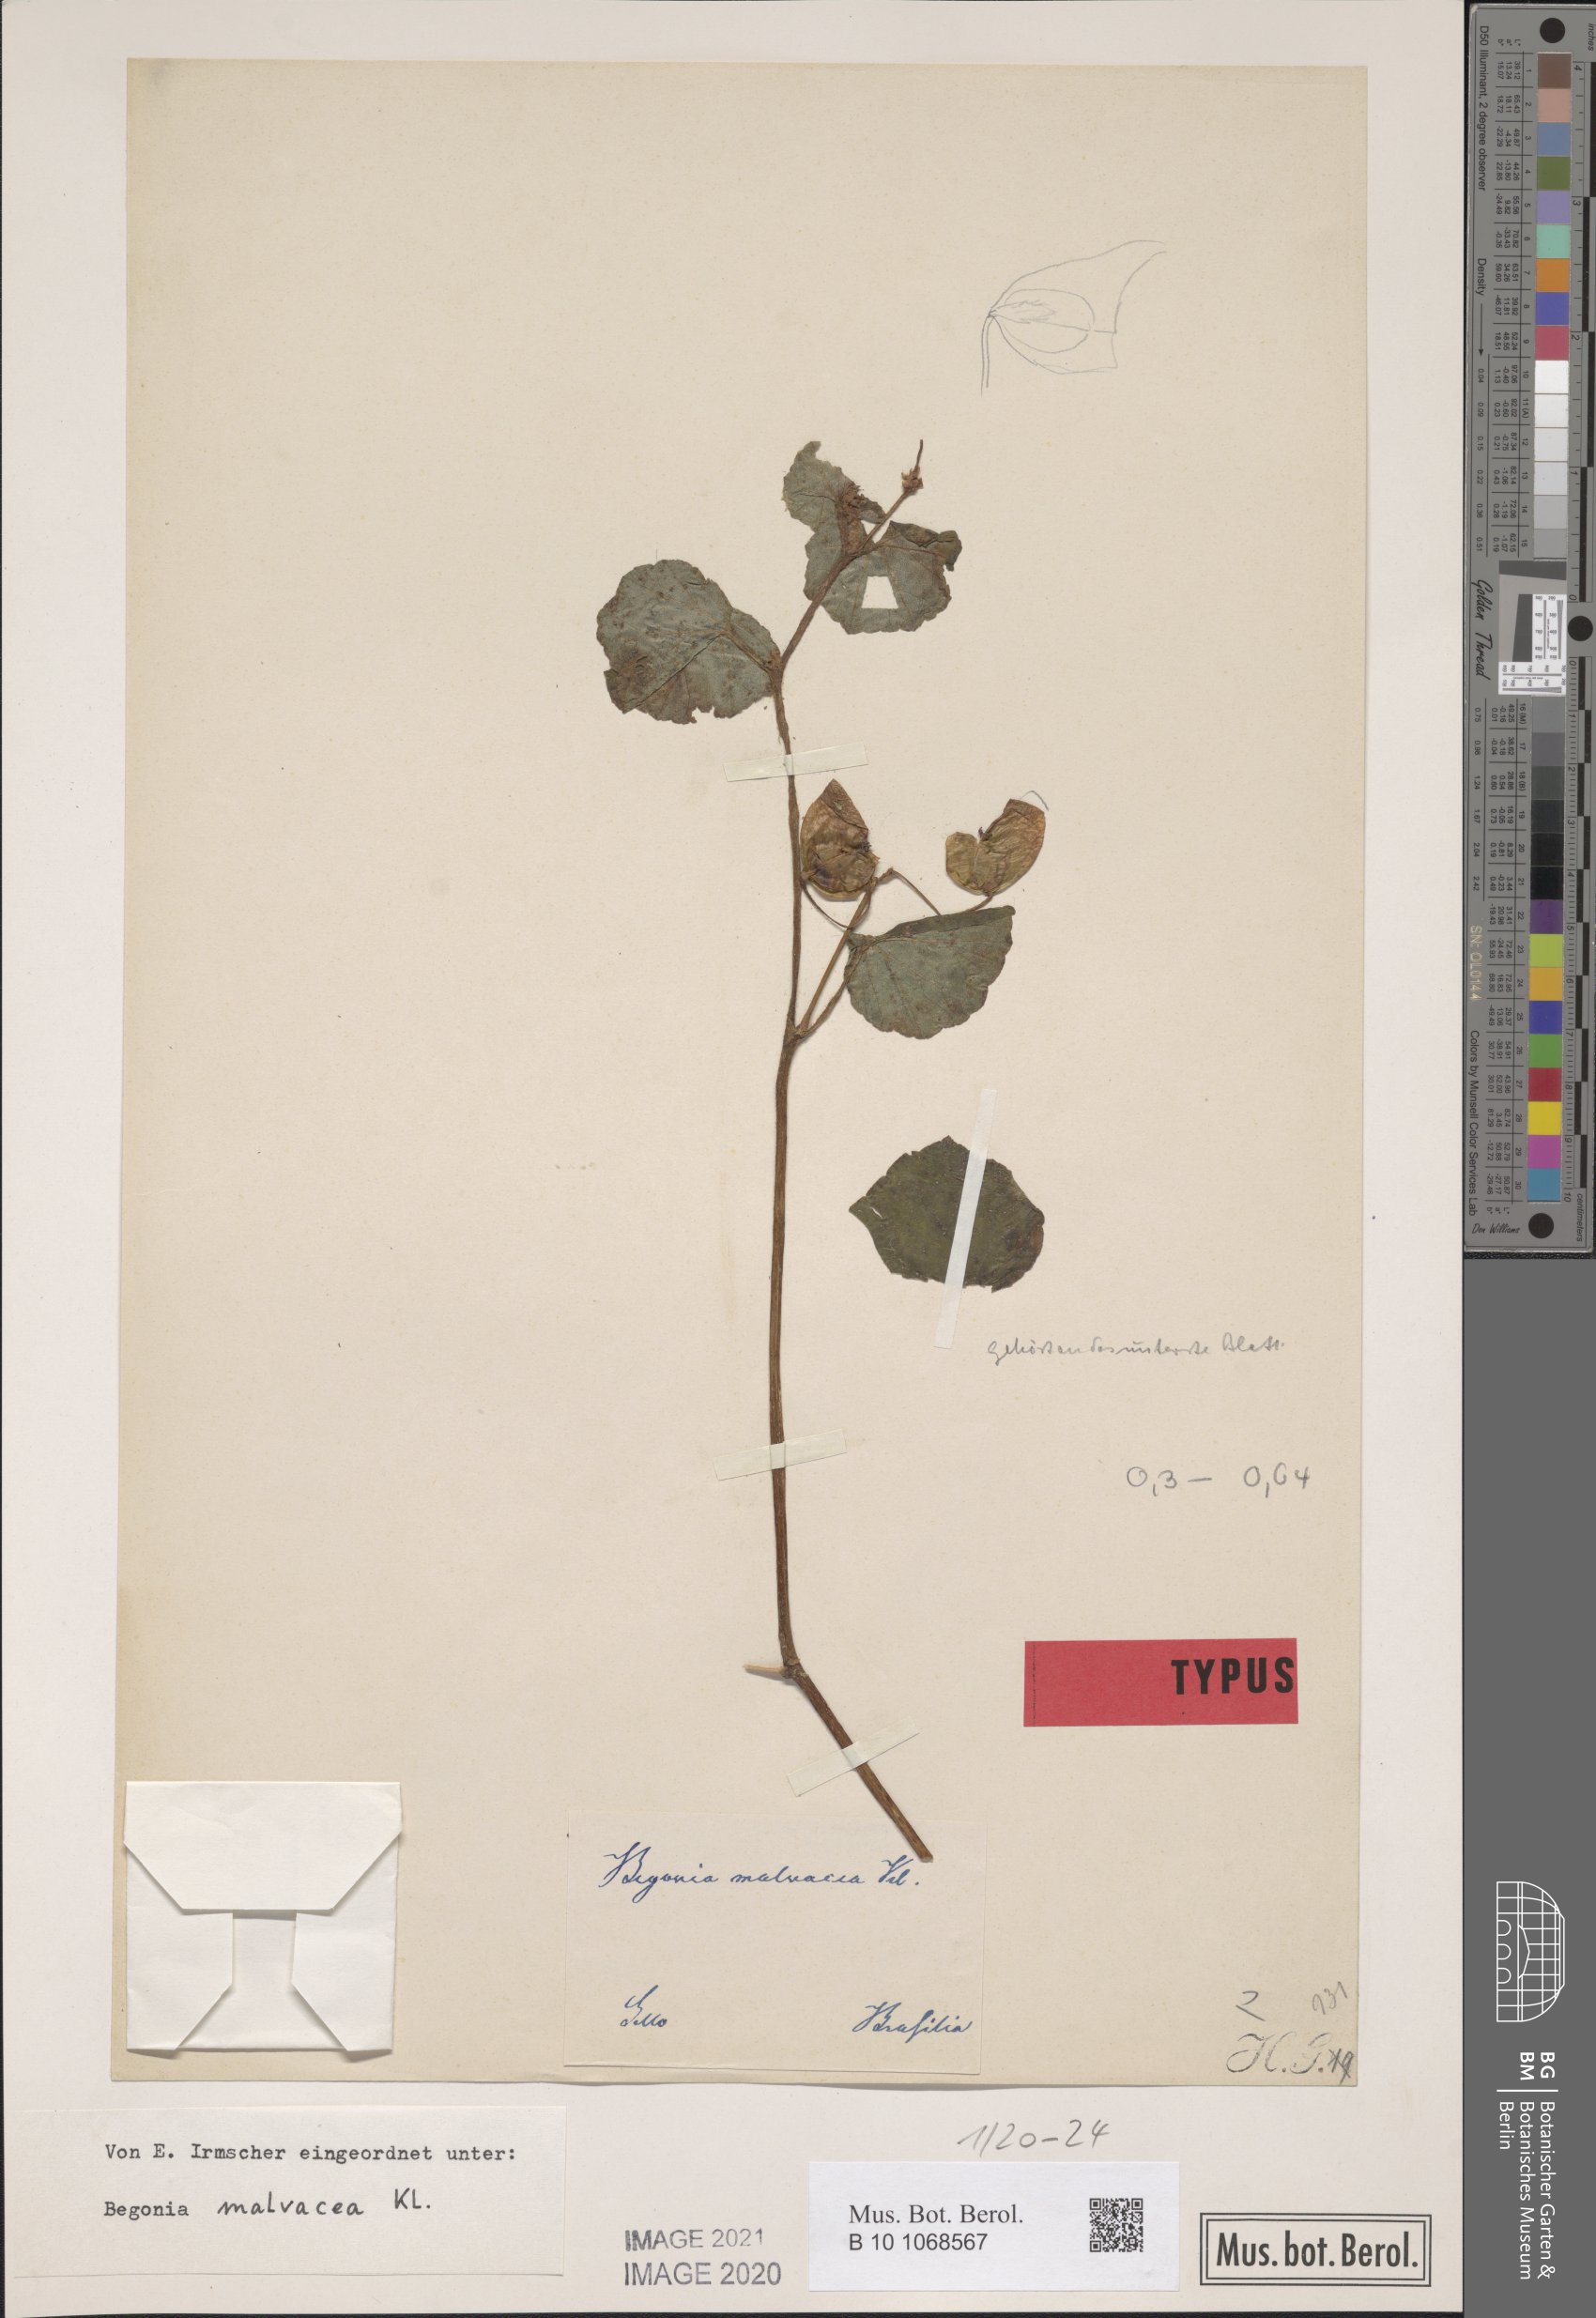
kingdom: Plantae
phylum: Tracheophyta
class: Magnoliopsida
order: Cucurbitales
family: Begoniaceae
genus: Begonia
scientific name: Begonia fischeri
